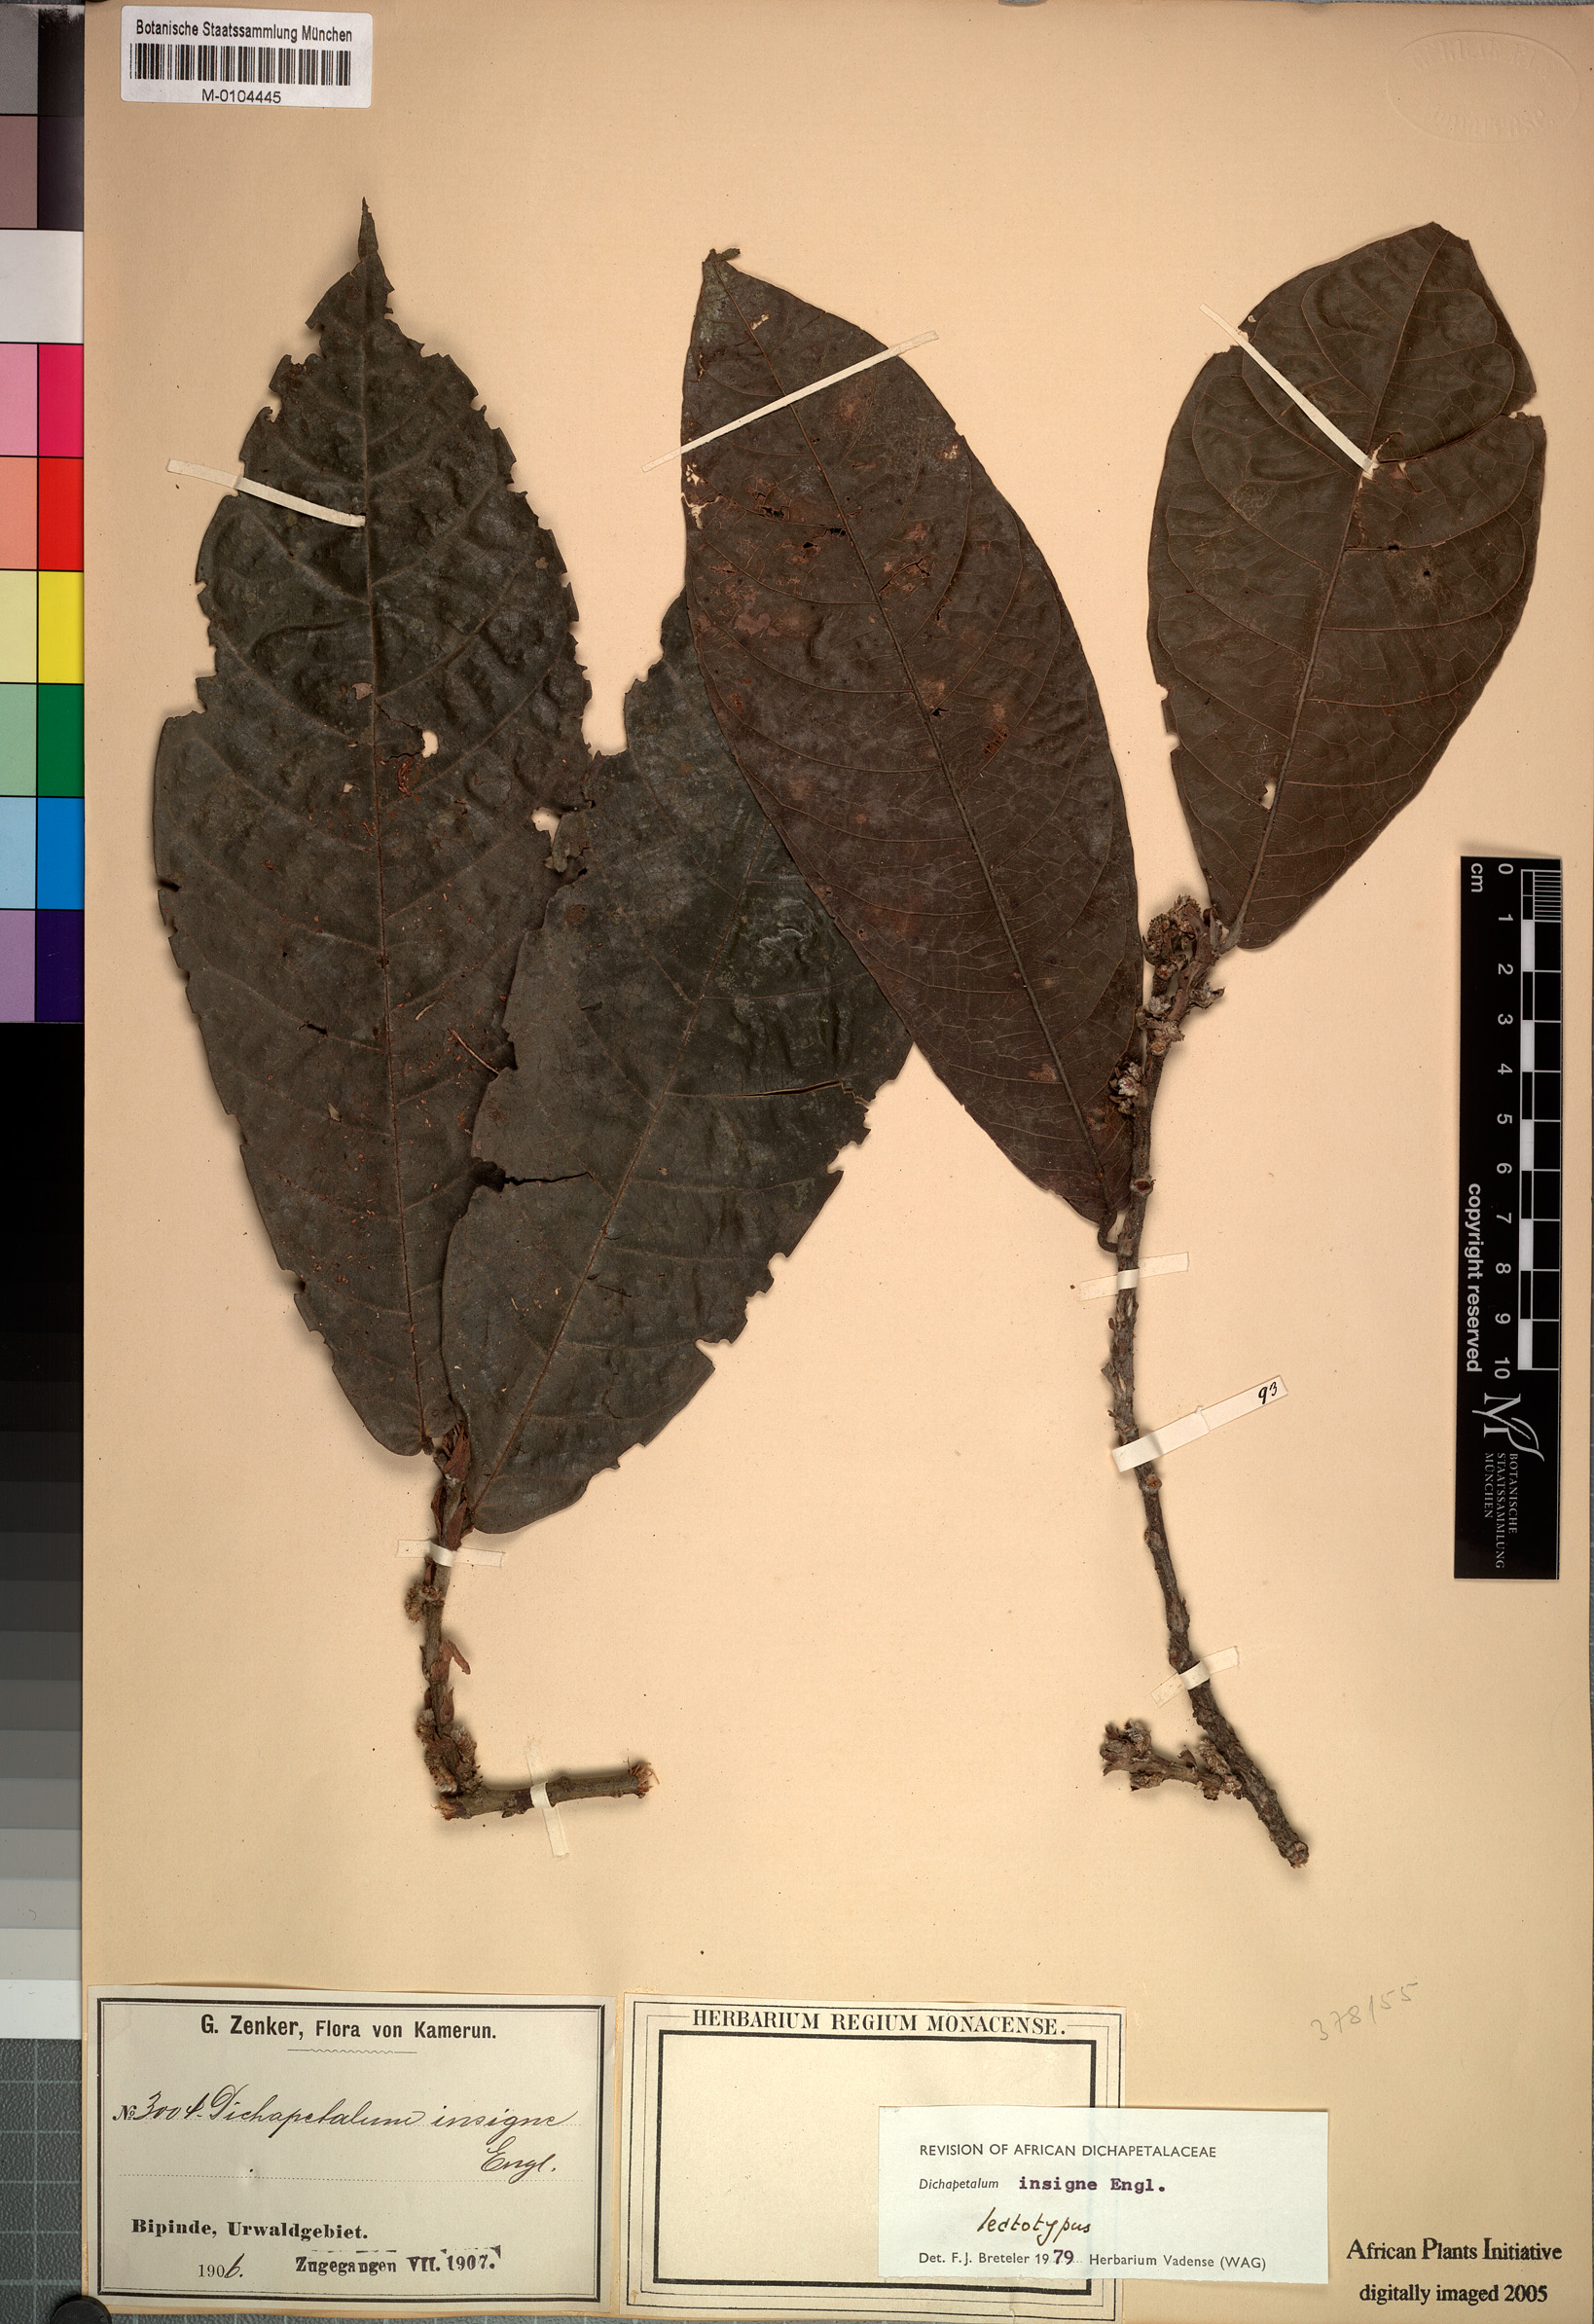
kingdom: Plantae
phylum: Tracheophyta
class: Magnoliopsida
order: Malpighiales
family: Dichapetalaceae
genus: Dichapetalum
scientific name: Dichapetalum insigne
